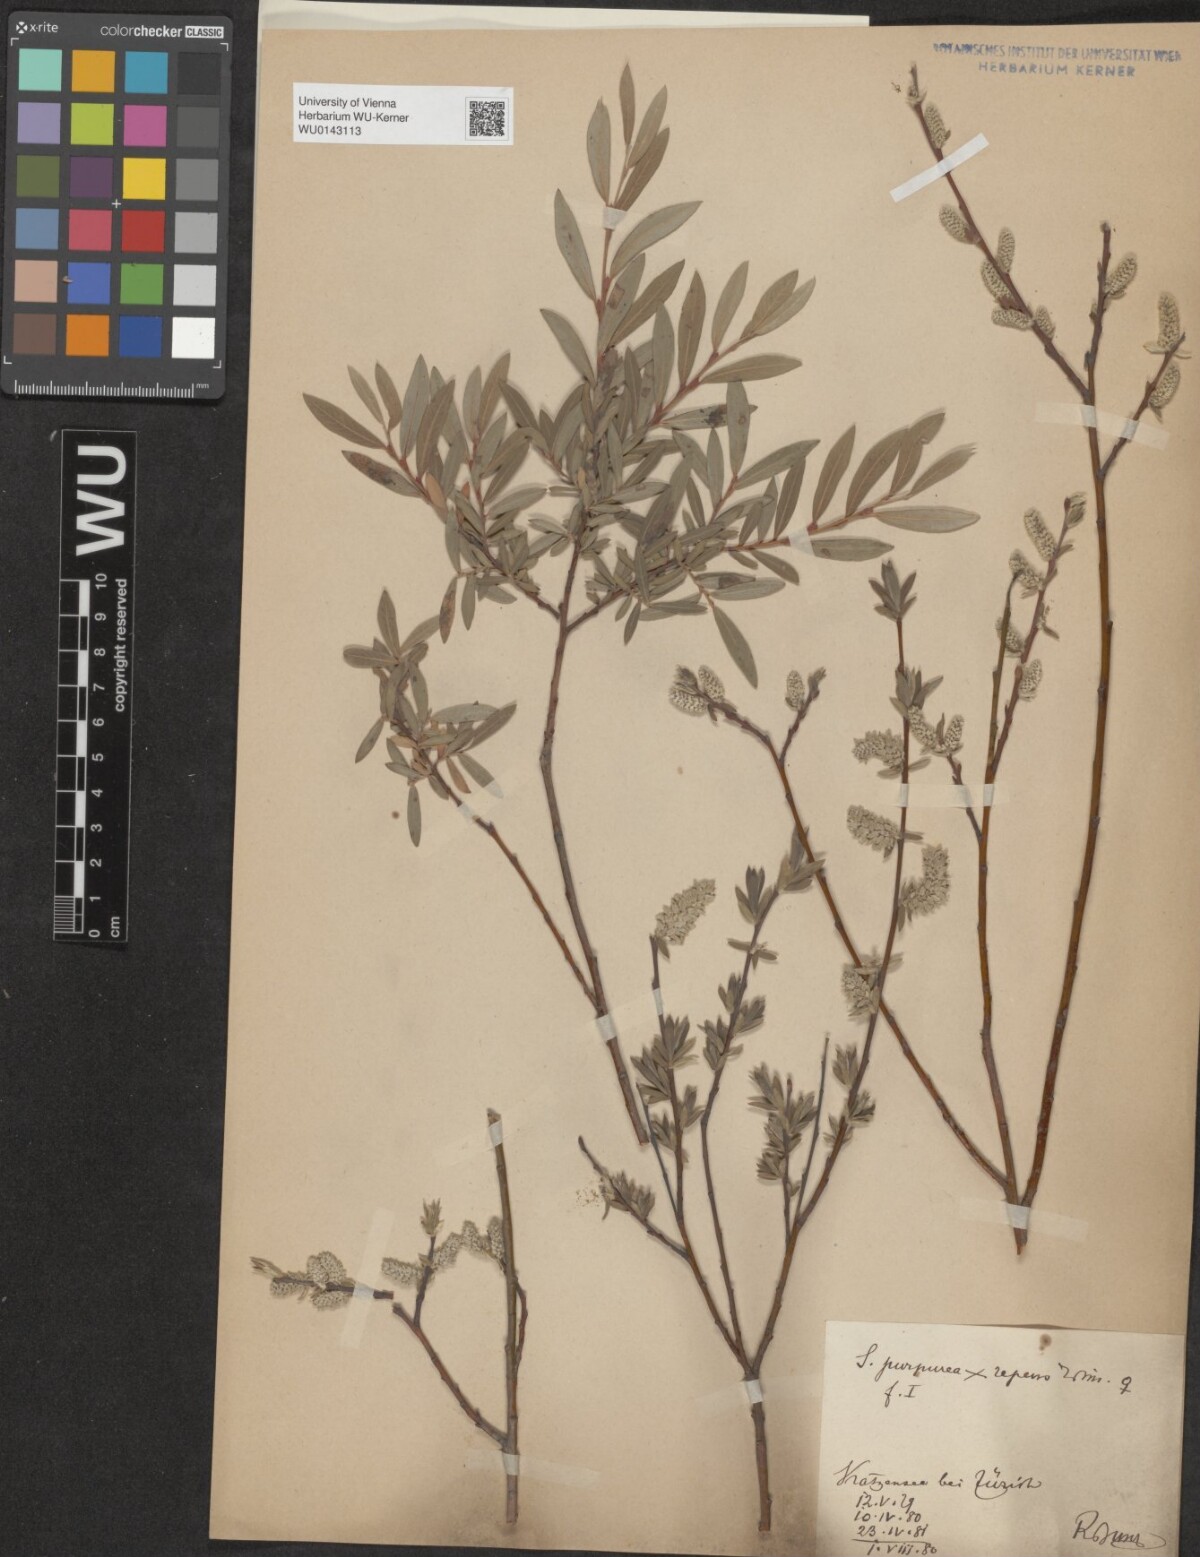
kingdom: Plantae
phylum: Tracheophyta
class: Magnoliopsida
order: Malpighiales
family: Salicaceae
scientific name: Salicaceae
